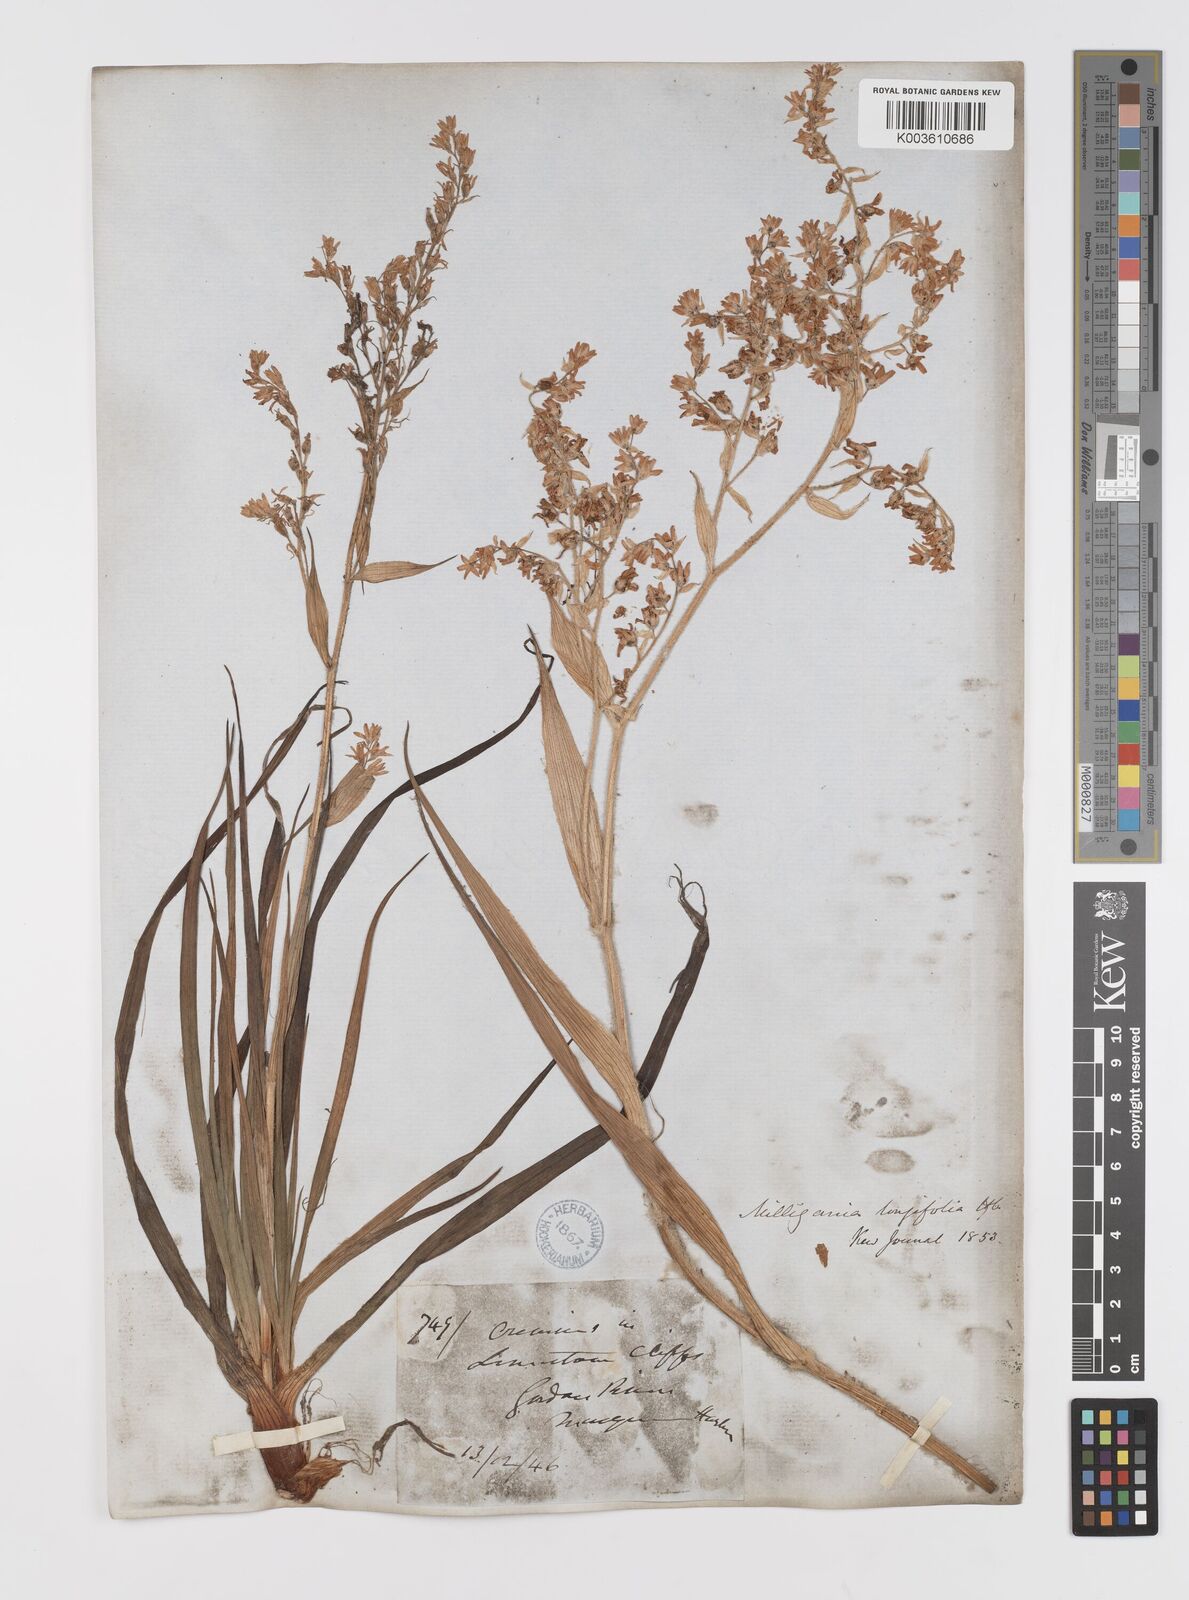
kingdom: Plantae
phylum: Tracheophyta
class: Liliopsida
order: Asparagales
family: Asteliaceae
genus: Milligania
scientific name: Milligania longifolia
